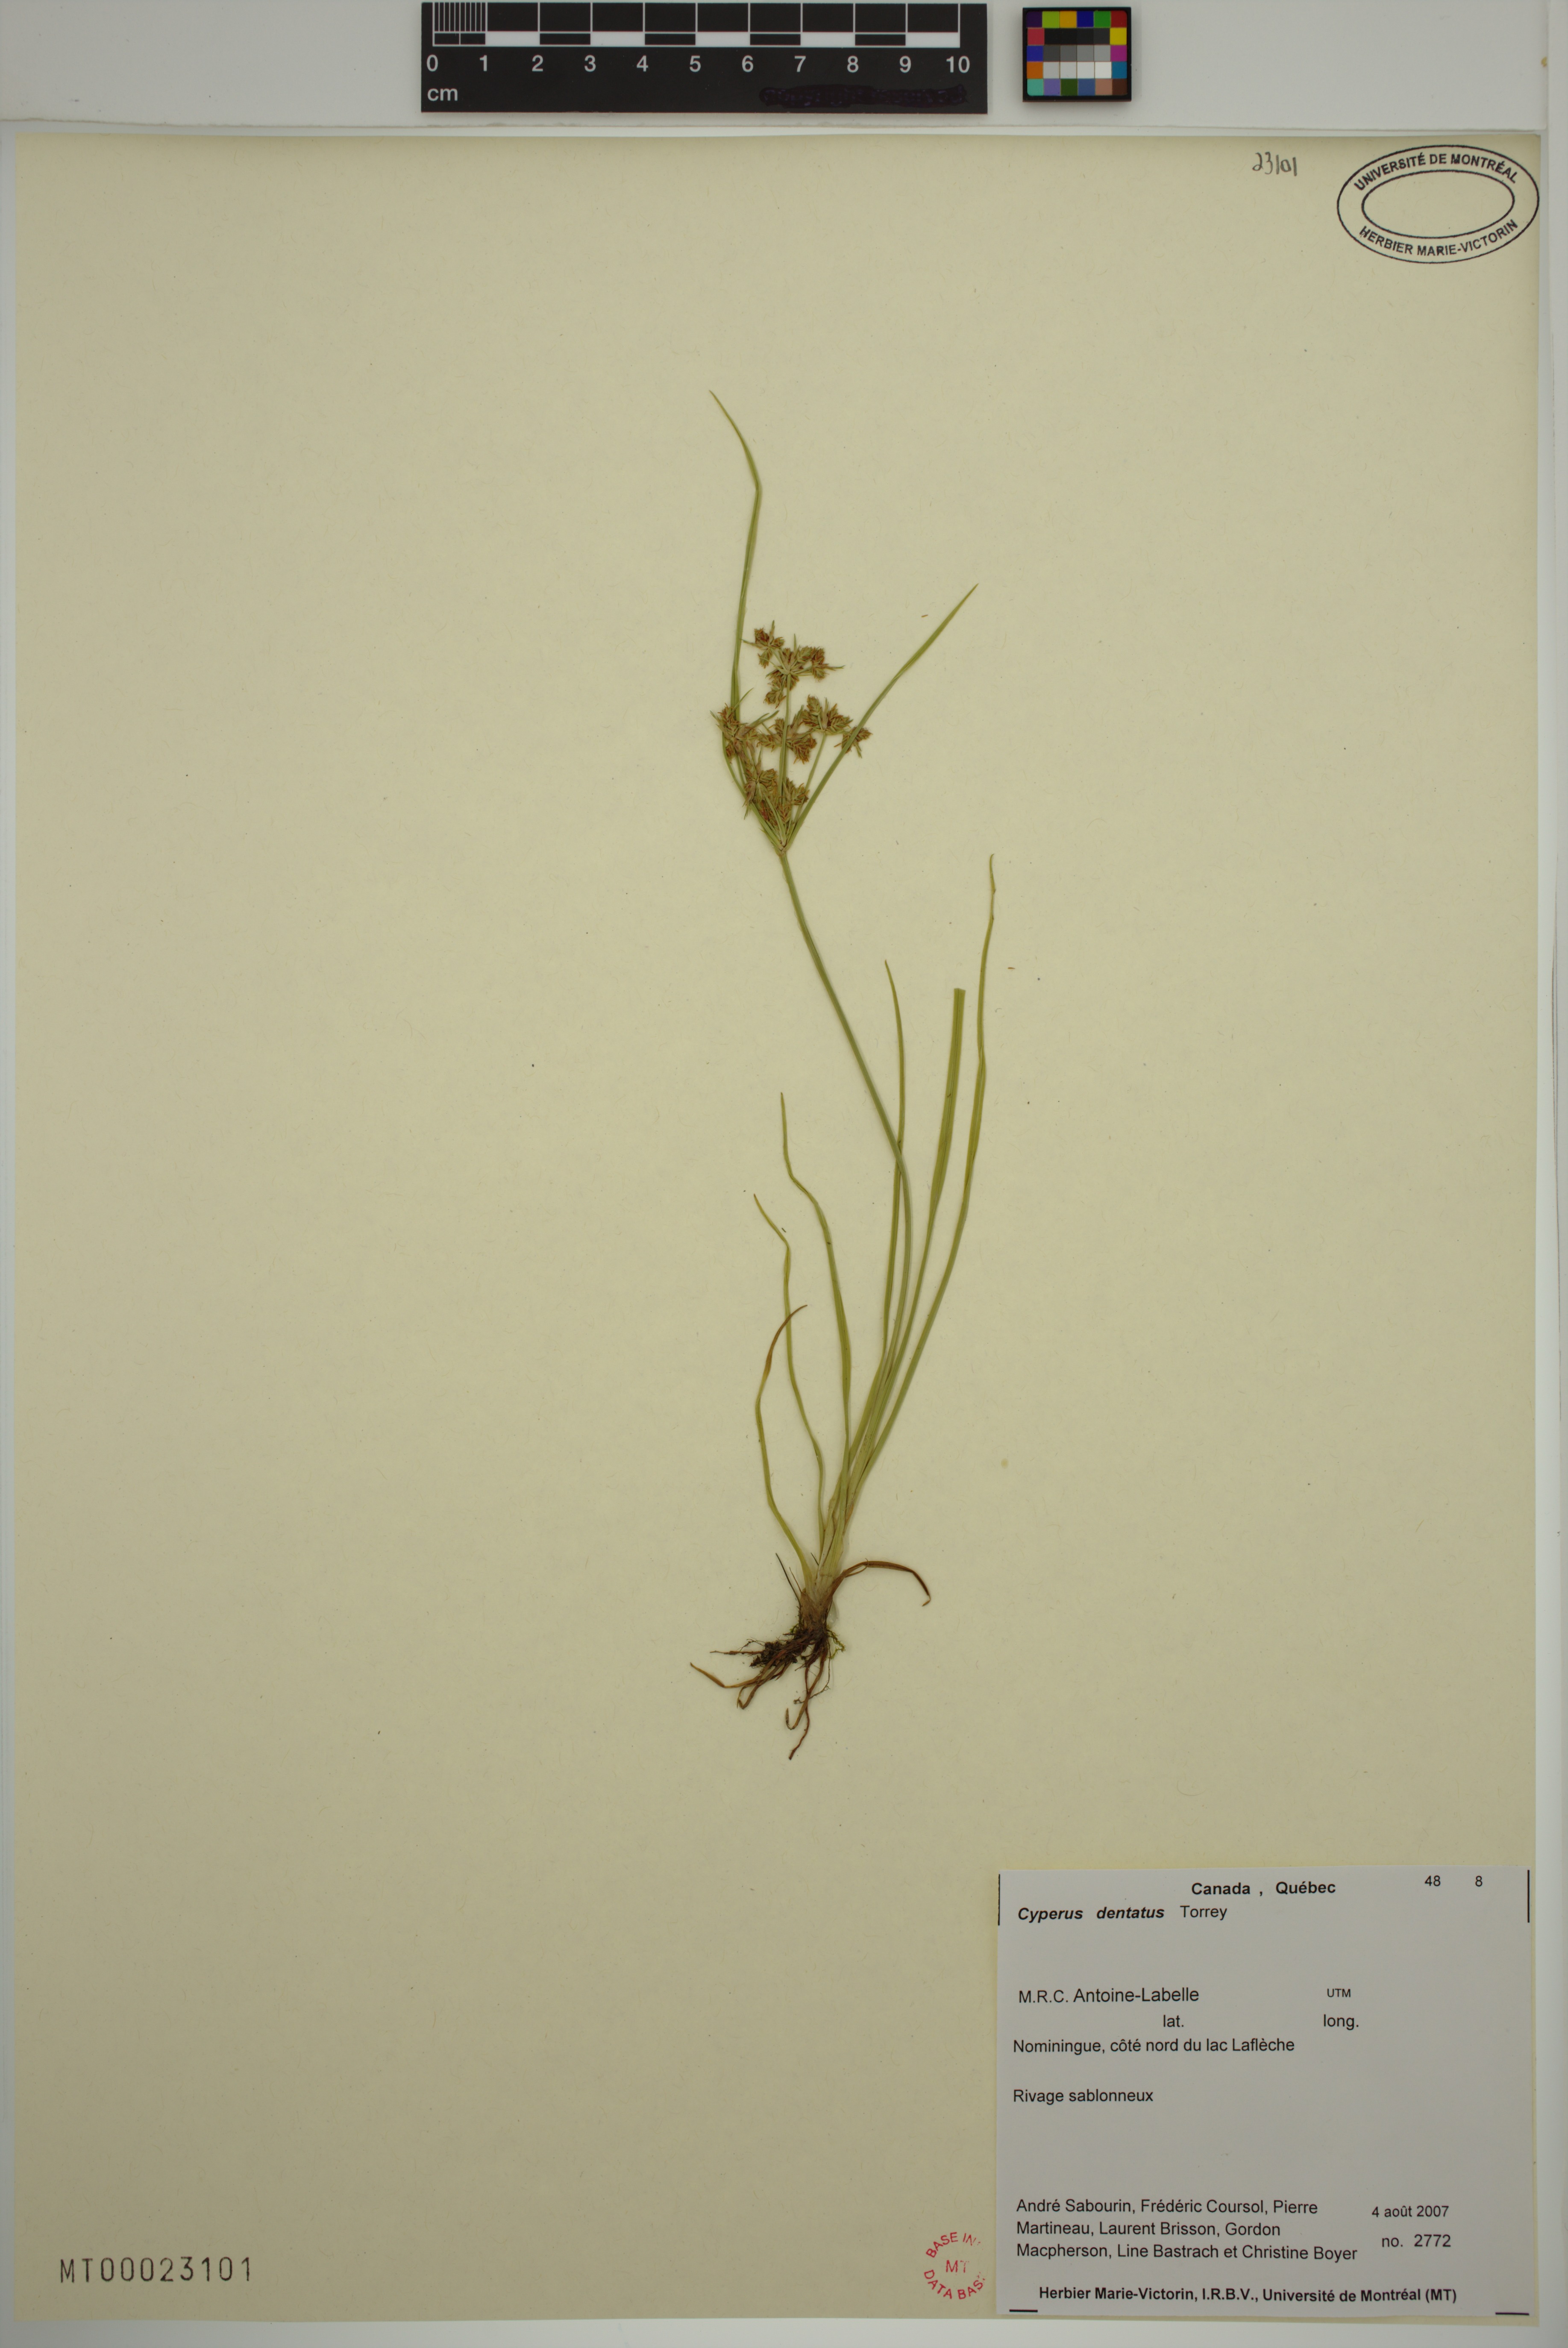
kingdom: Plantae
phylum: Tracheophyta
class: Liliopsida
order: Poales
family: Cyperaceae
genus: Cyperus
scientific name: Cyperus dentatus
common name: Dentate umbrella sedge
